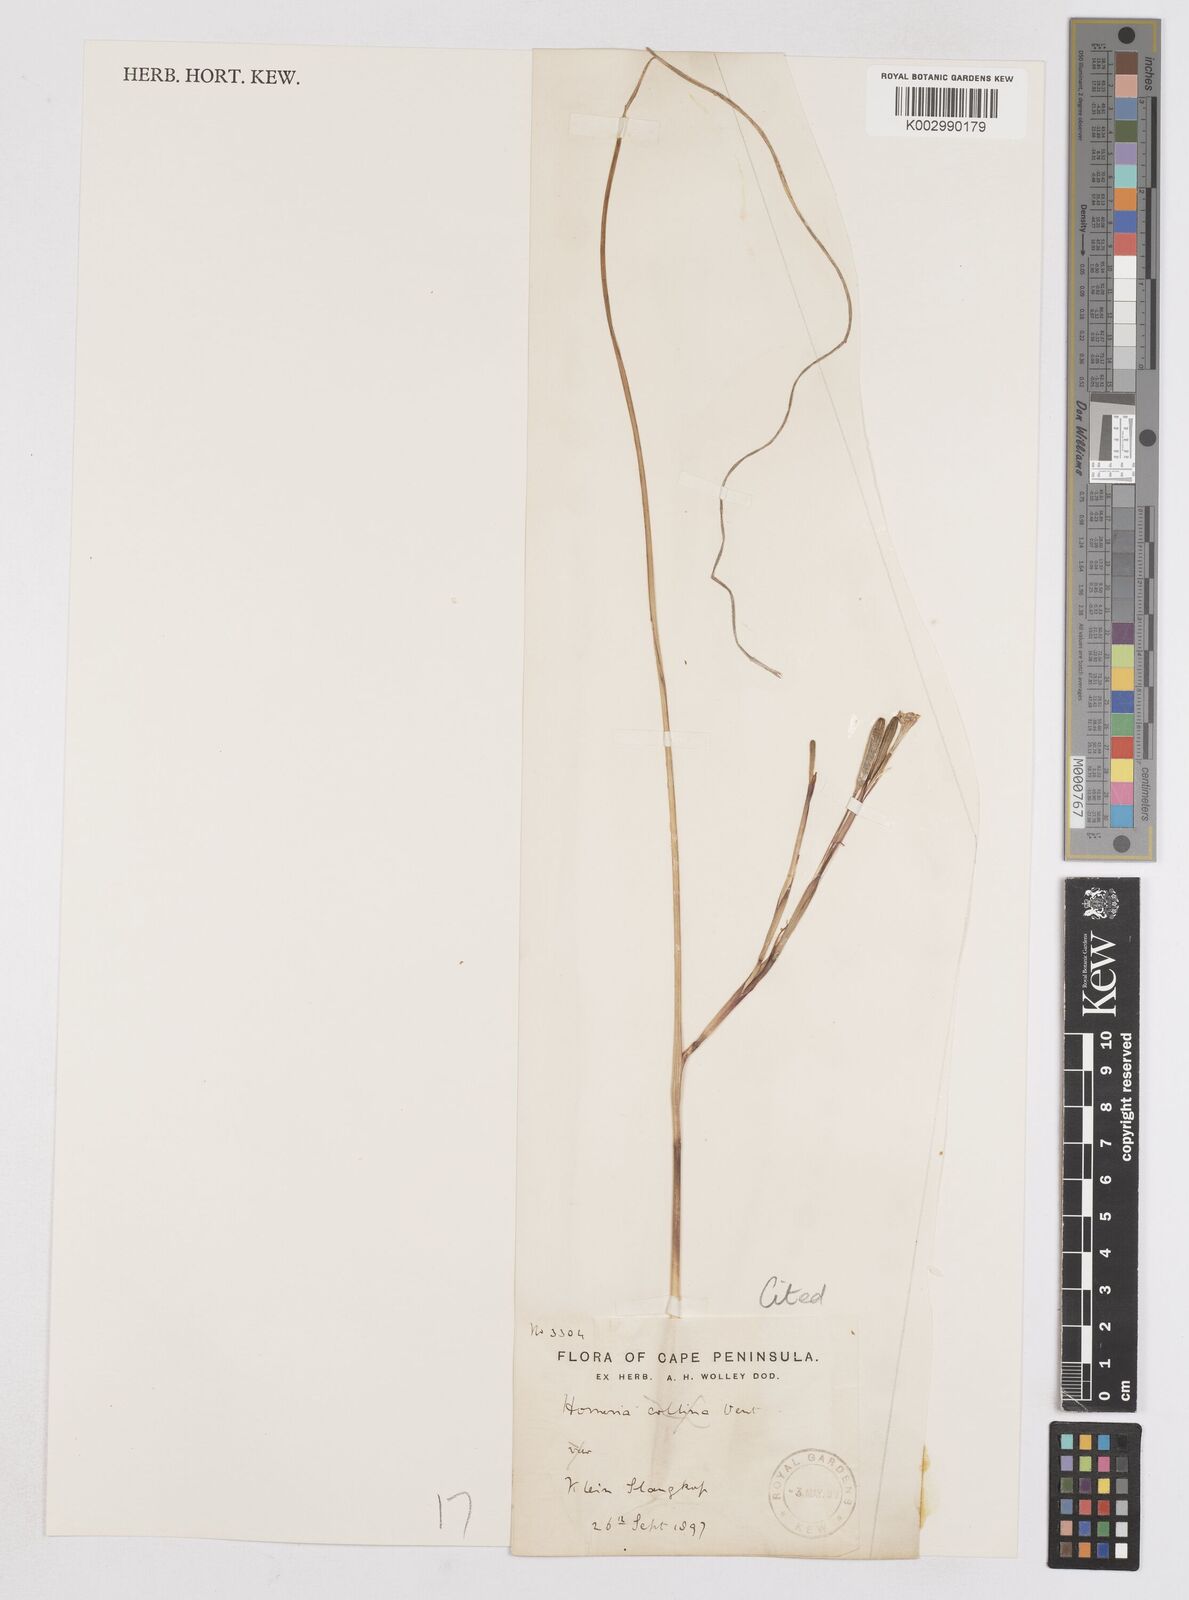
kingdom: Plantae
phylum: Tracheophyta
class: Liliopsida
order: Asparagales
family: Iridaceae
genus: Moraea
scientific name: Moraea minor
